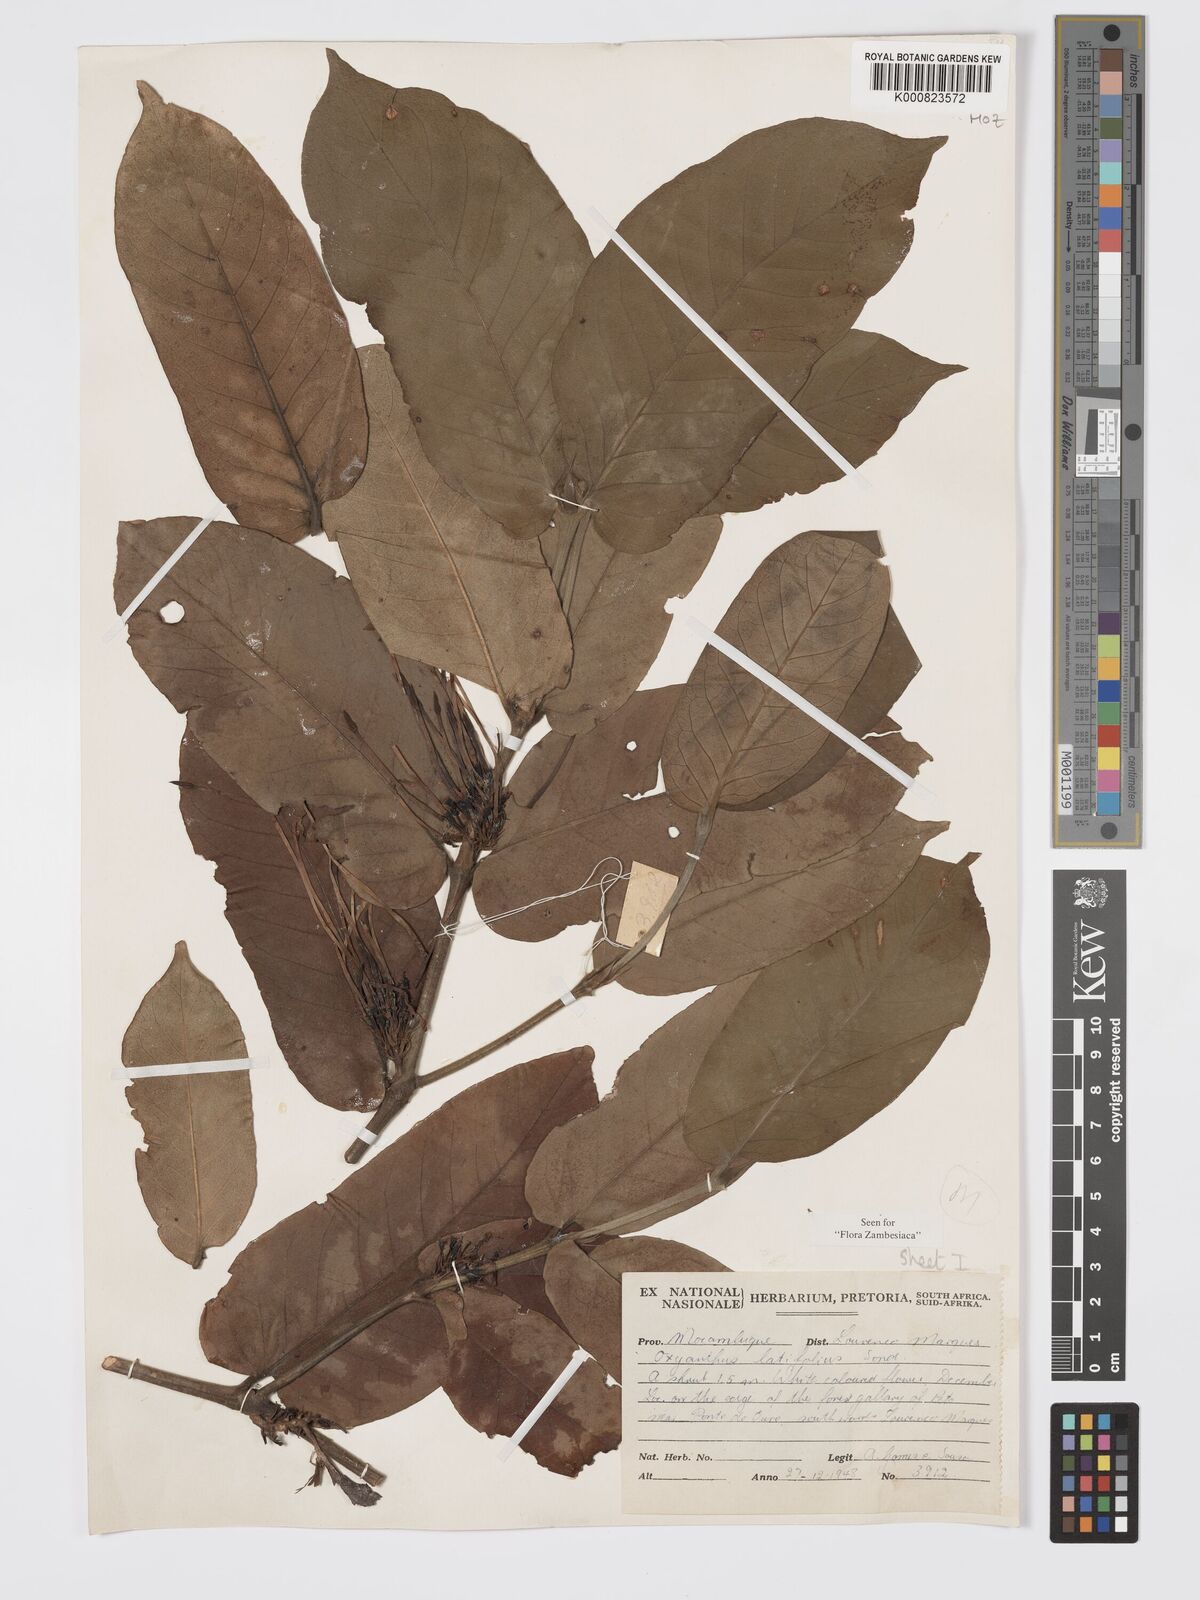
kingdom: Plantae
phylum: Tracheophyta
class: Magnoliopsida
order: Gentianales
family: Rubiaceae
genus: Oxyanthus
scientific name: Oxyanthus latifolius
